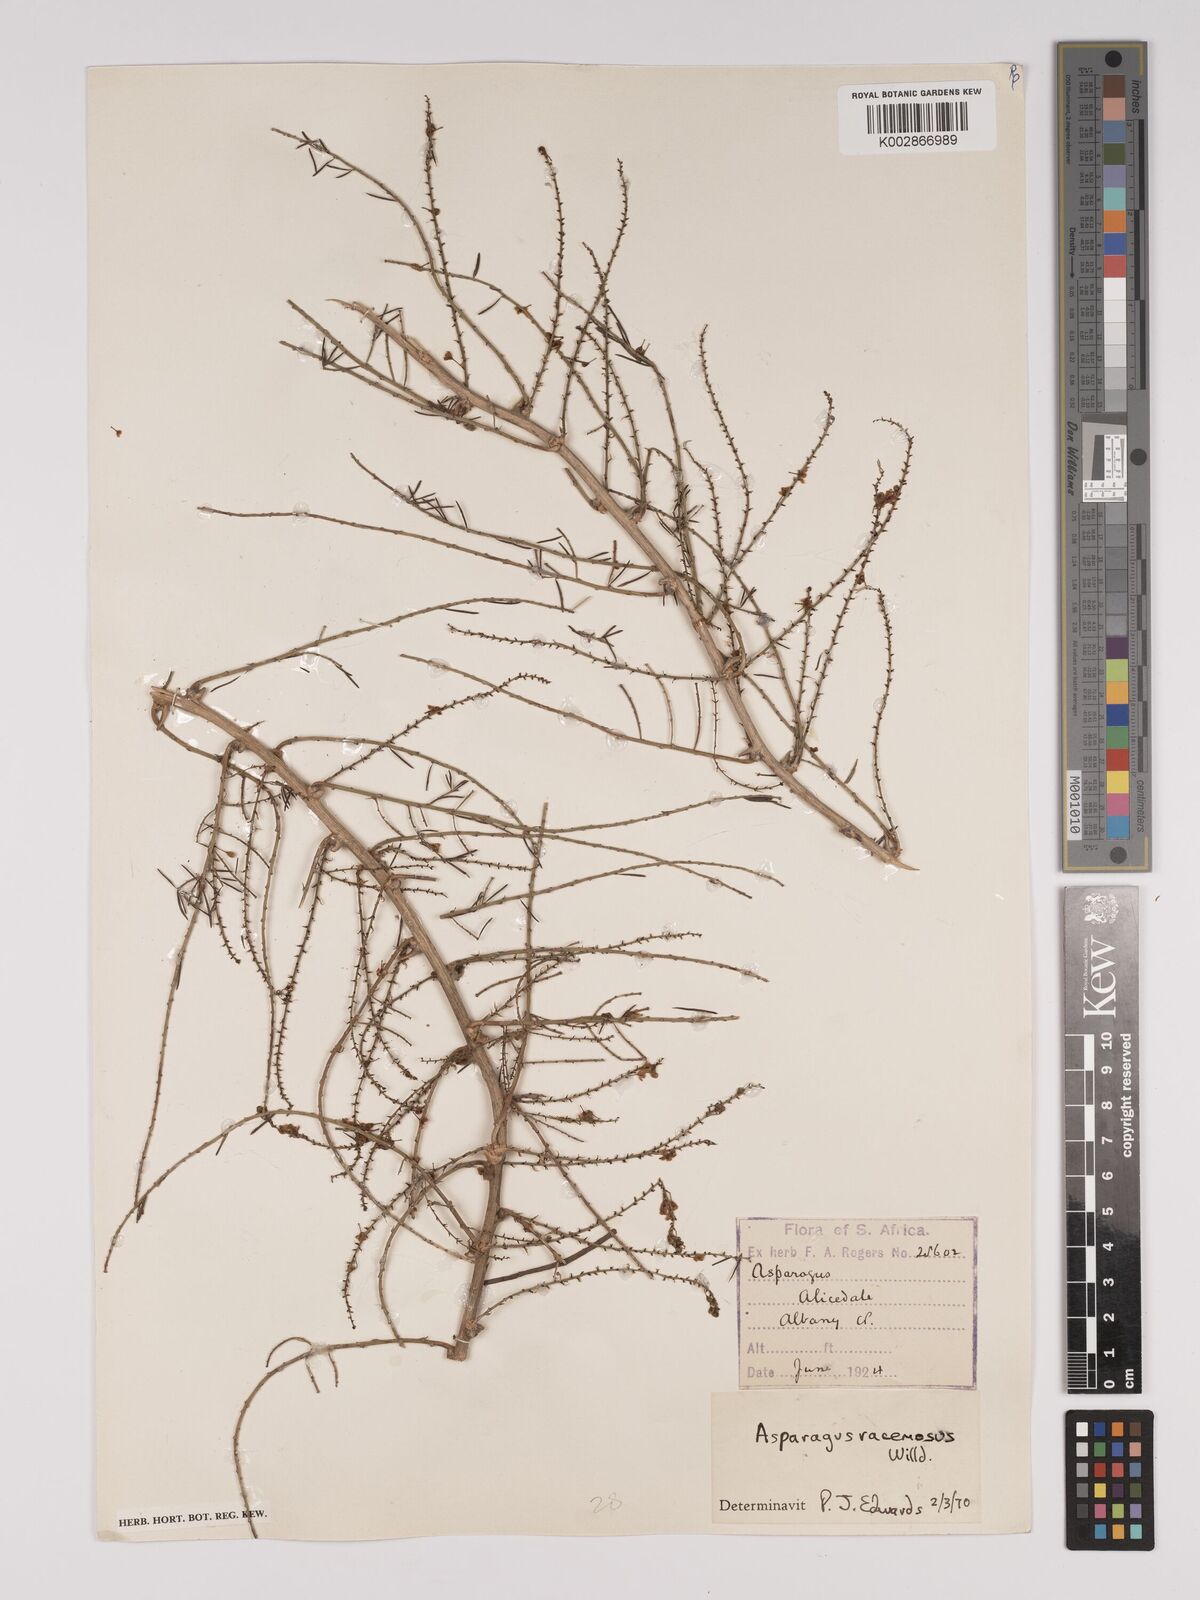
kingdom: Plantae
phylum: Tracheophyta
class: Liliopsida
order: Asparagales
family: Asparagaceae
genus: Asparagus
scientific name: Asparagus racemosus
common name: Asparagus-fern
